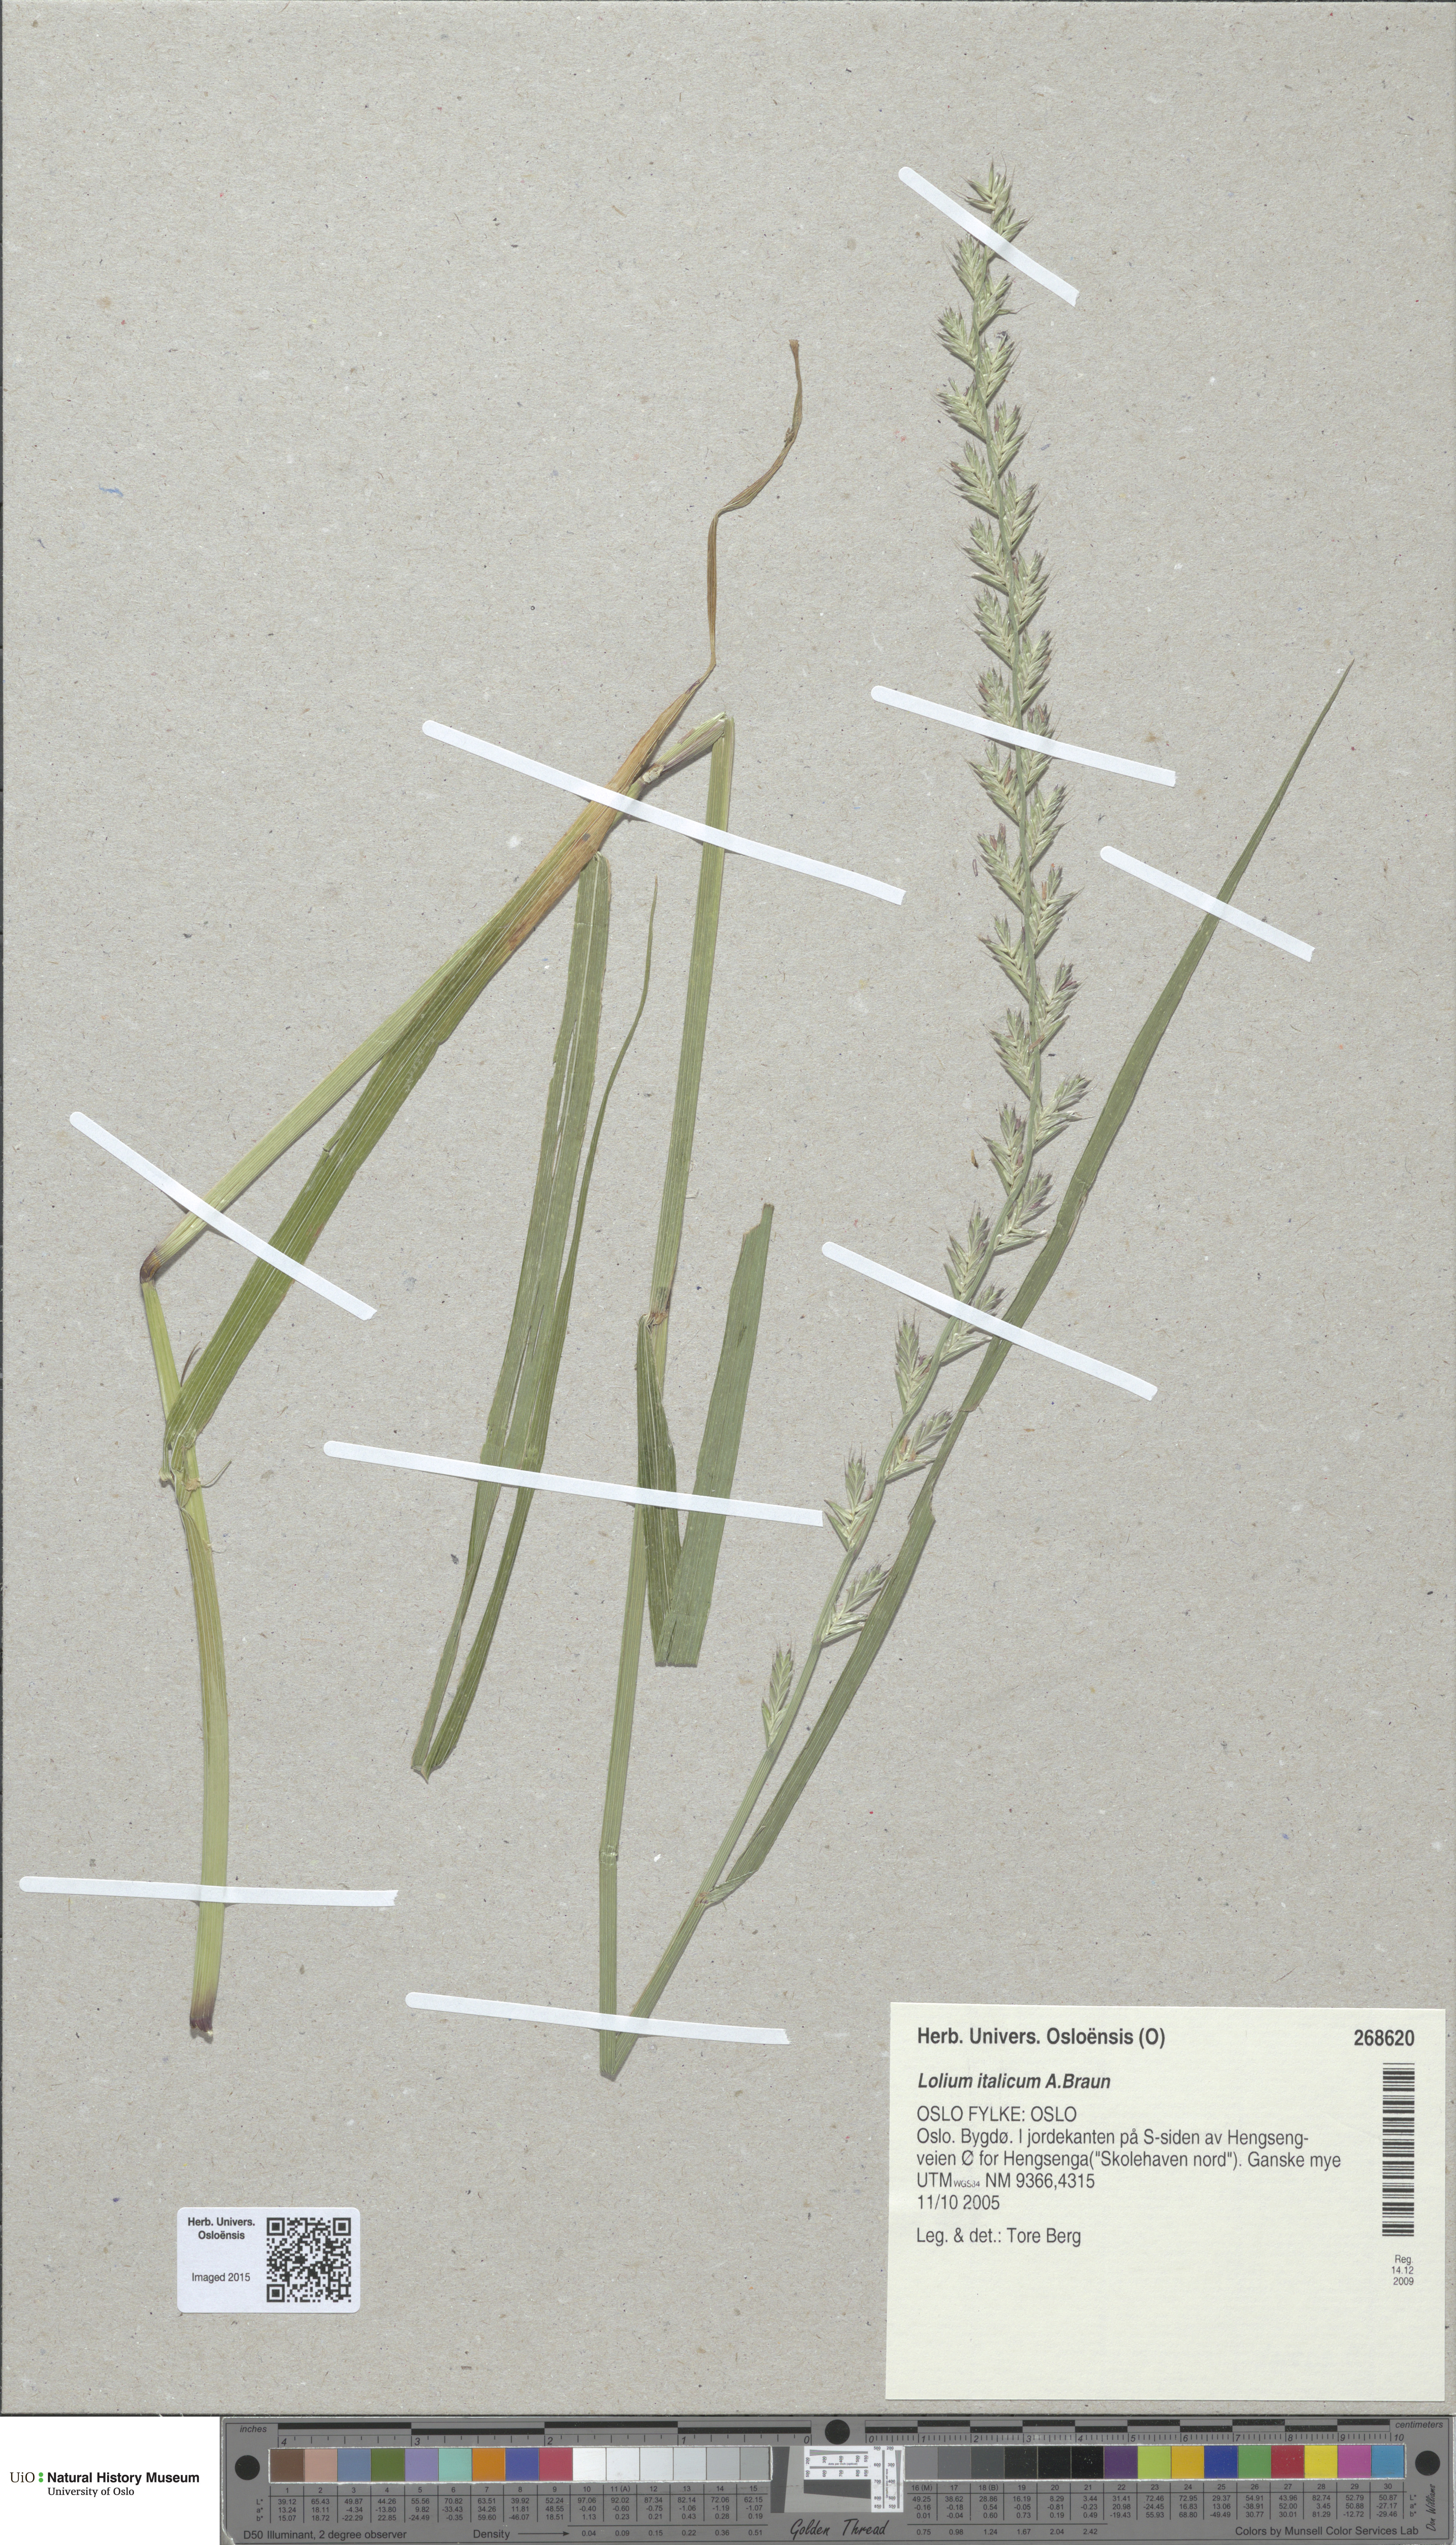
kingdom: Plantae
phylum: Tracheophyta
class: Liliopsida
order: Poales
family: Poaceae
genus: Lolium
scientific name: Lolium multiflorum
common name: Annual ryegrass
